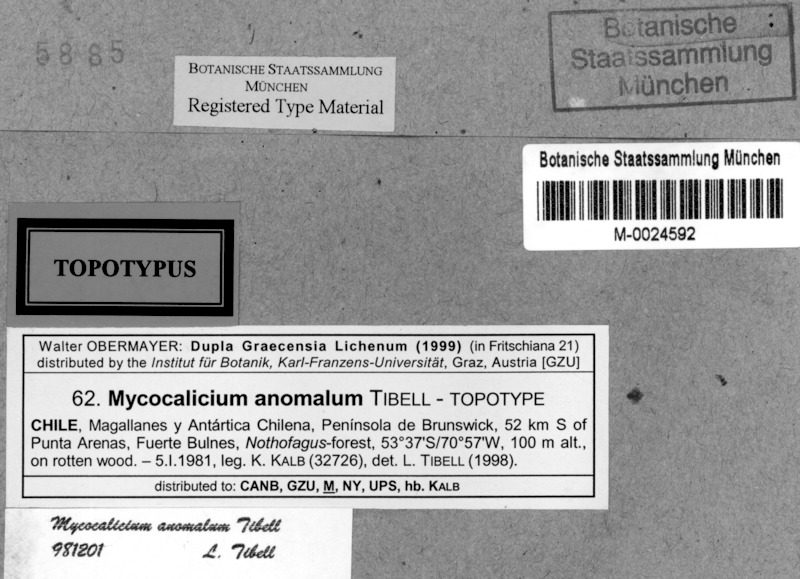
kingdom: Fungi
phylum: Ascomycota
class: Eurotiomycetes
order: Mycocaliciales
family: Mycocaliciaceae
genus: Mycocalicium
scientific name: Mycocalicium
